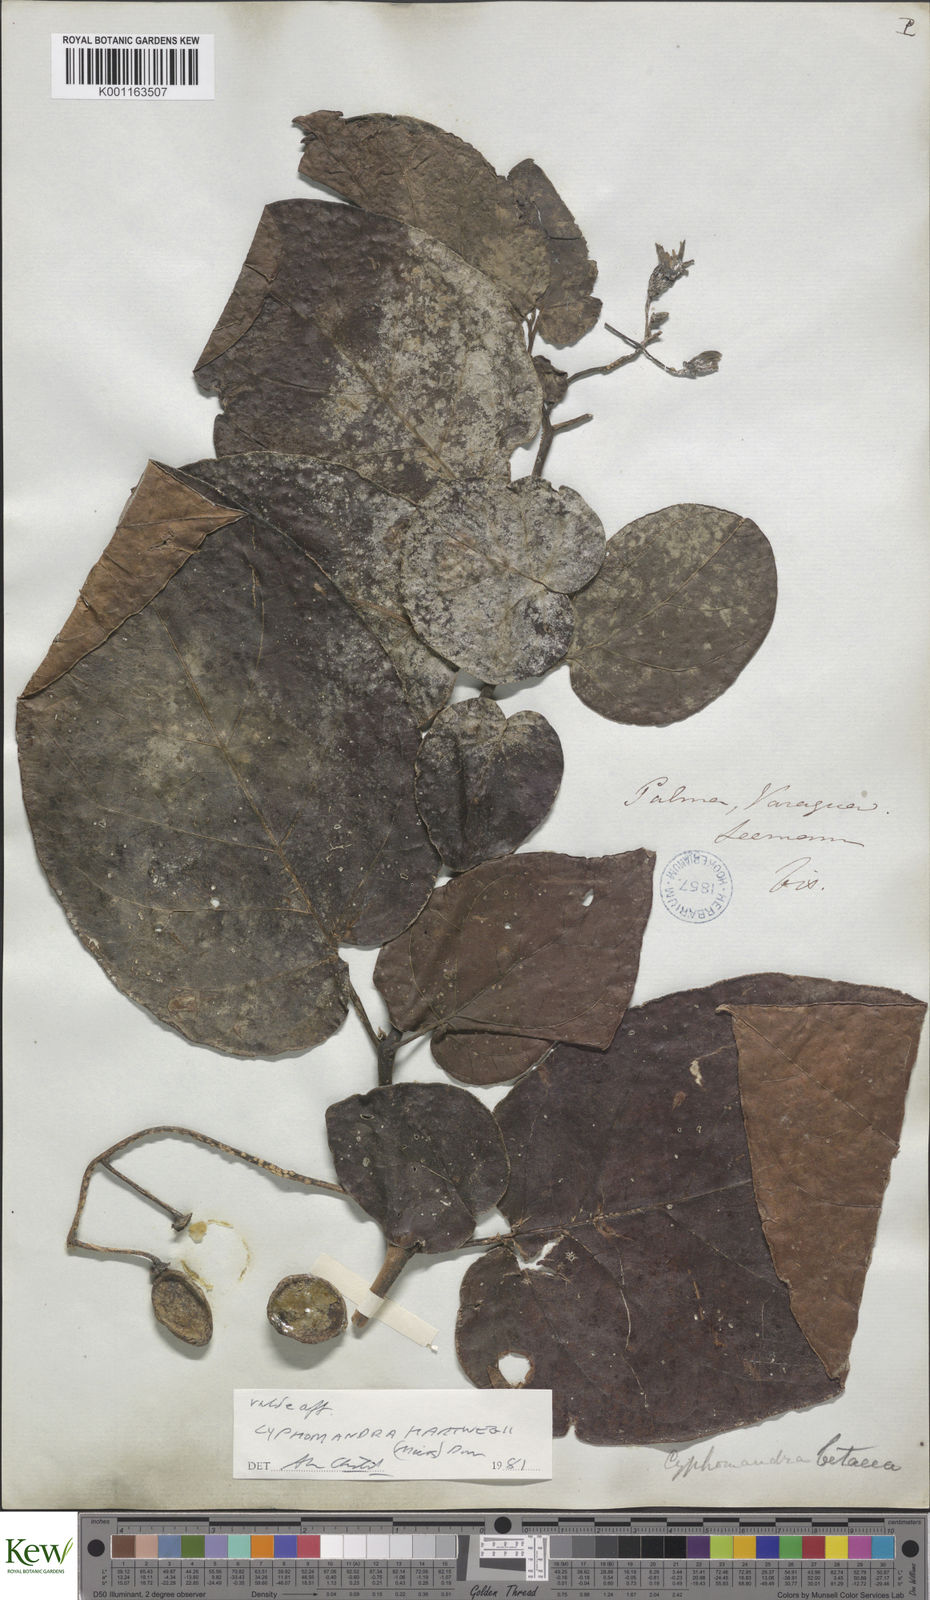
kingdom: Plantae
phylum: Tracheophyta
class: Magnoliopsida
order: Solanales
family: Solanaceae
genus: Solanum
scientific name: Solanum splendens
